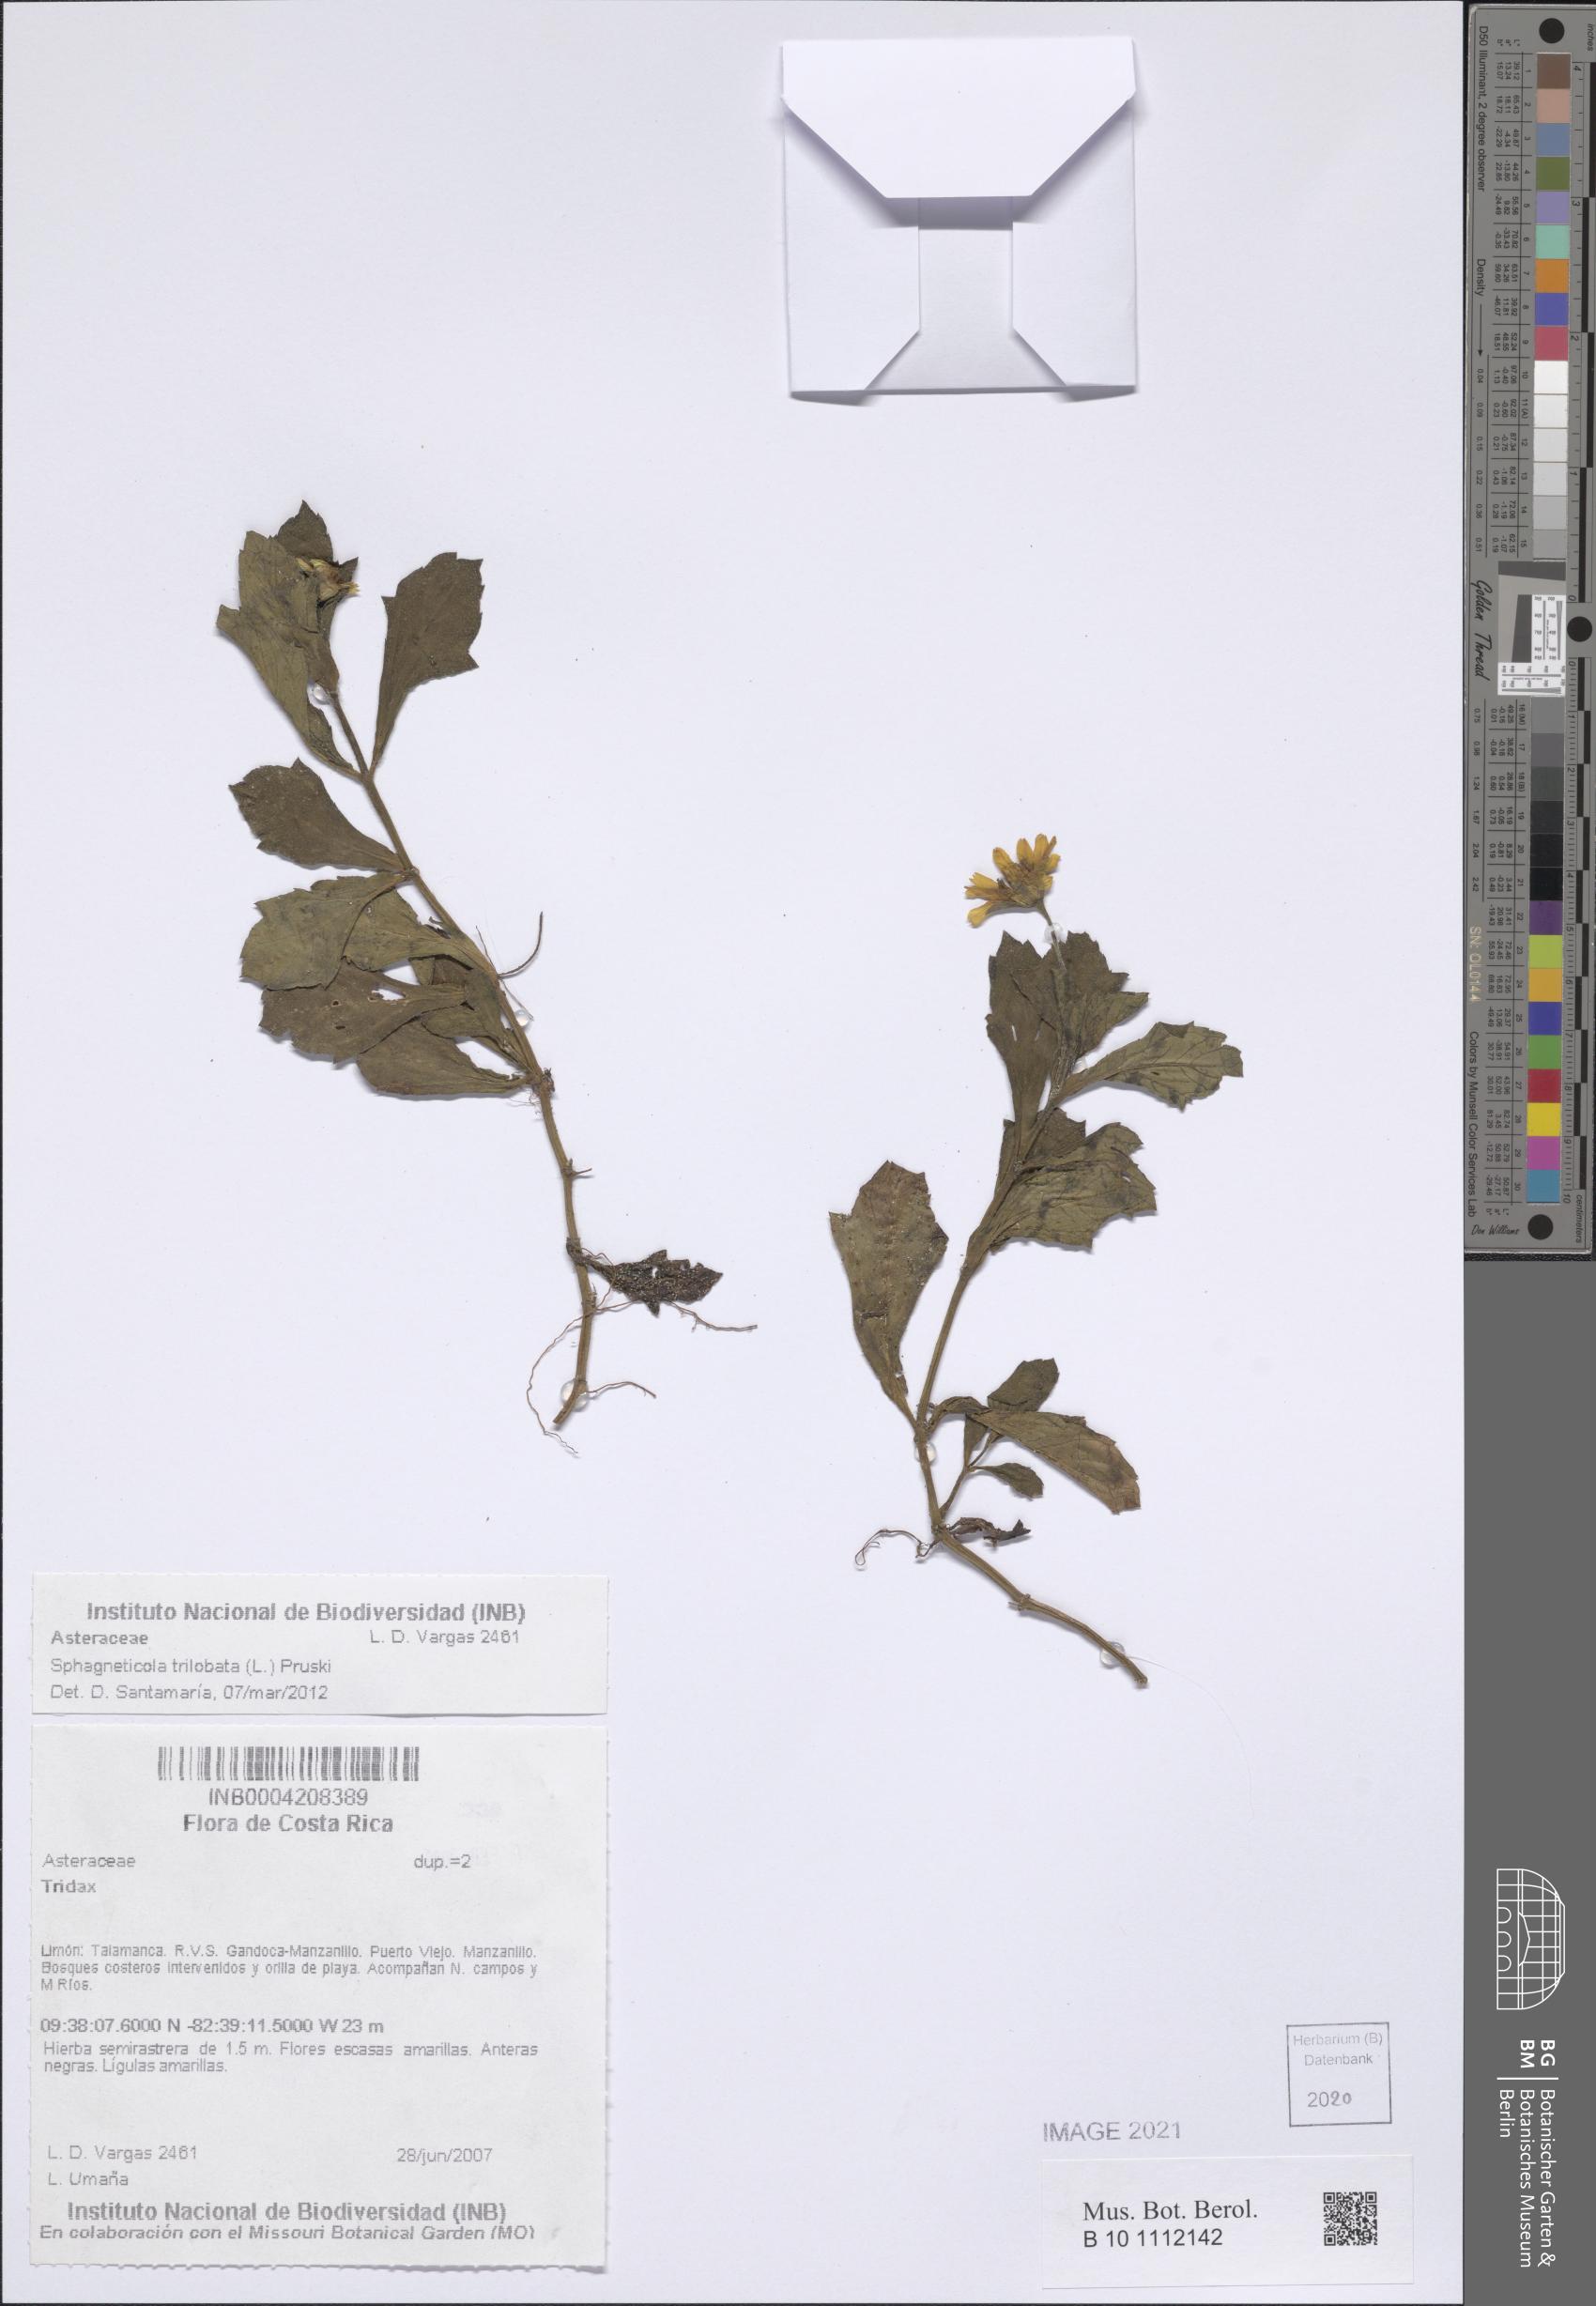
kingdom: Plantae
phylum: Tracheophyta
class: Magnoliopsida
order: Asterales
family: Asteraceae
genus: Sphagneticola
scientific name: Sphagneticola trilobata
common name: Bay biscayne creeping-oxeye
